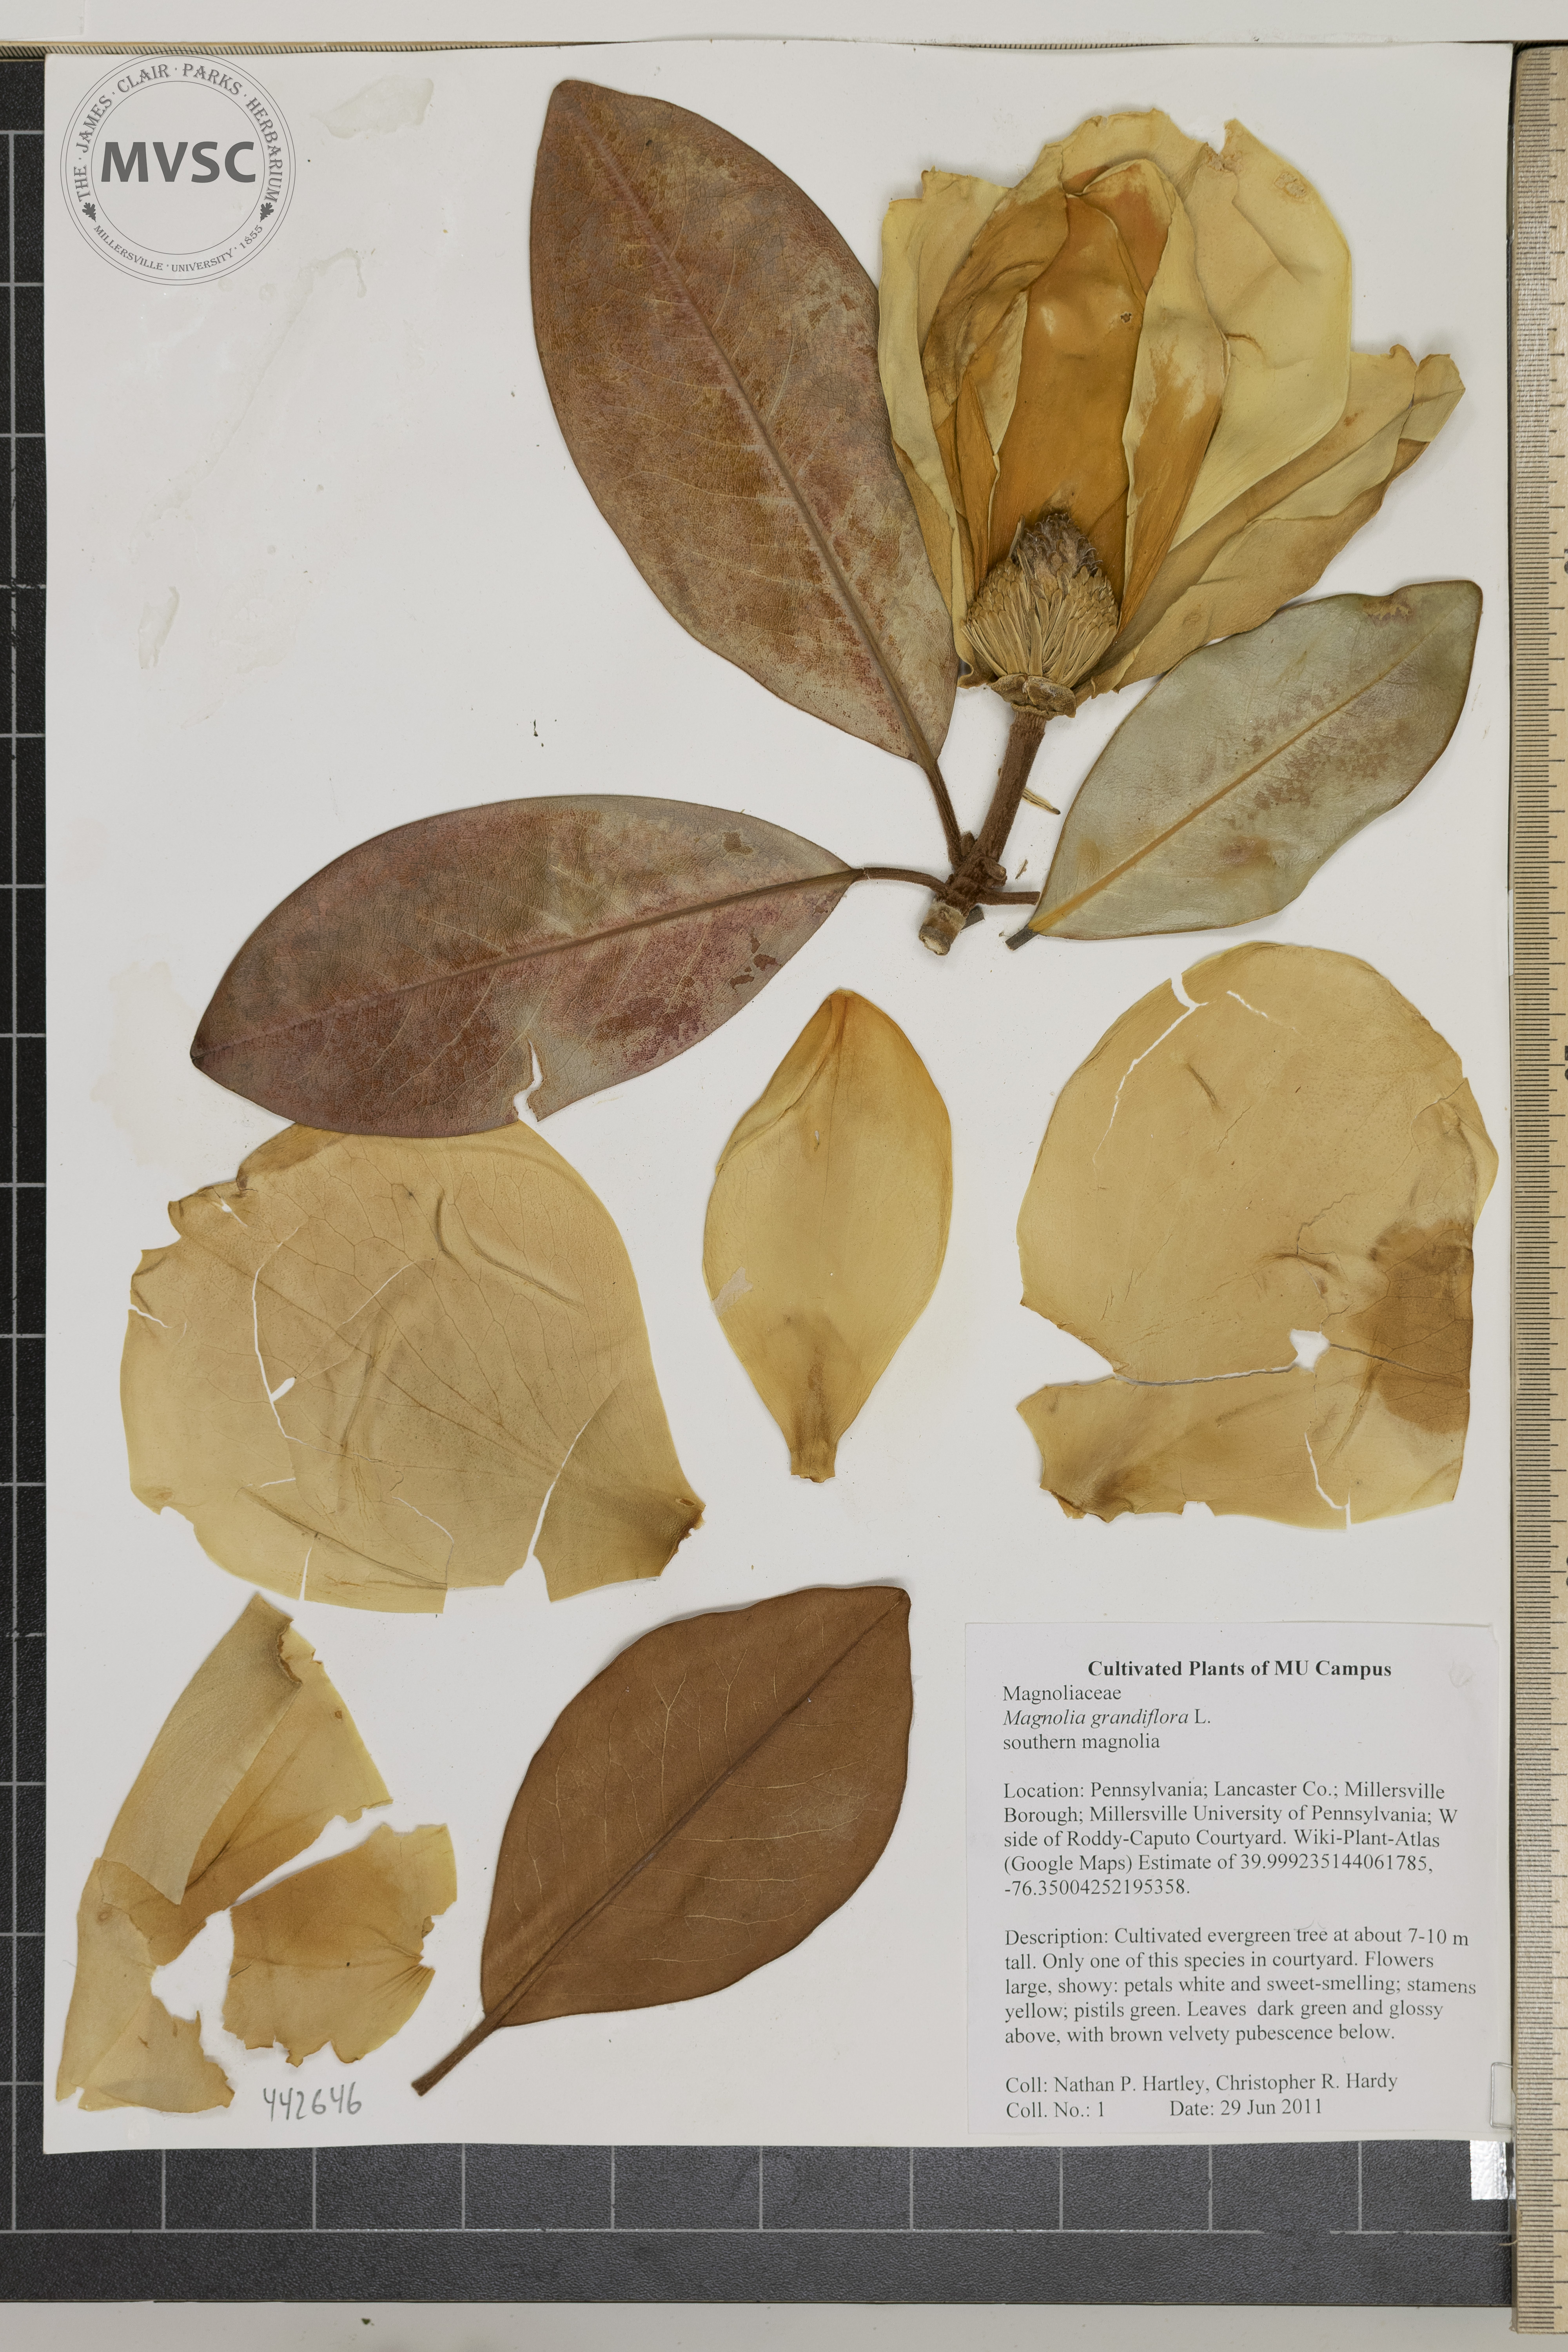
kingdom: Plantae
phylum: Tracheophyta
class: Magnoliopsida
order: Magnoliales
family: Magnoliaceae
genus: Magnolia
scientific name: Magnolia grandiflora
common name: southern magnolia
